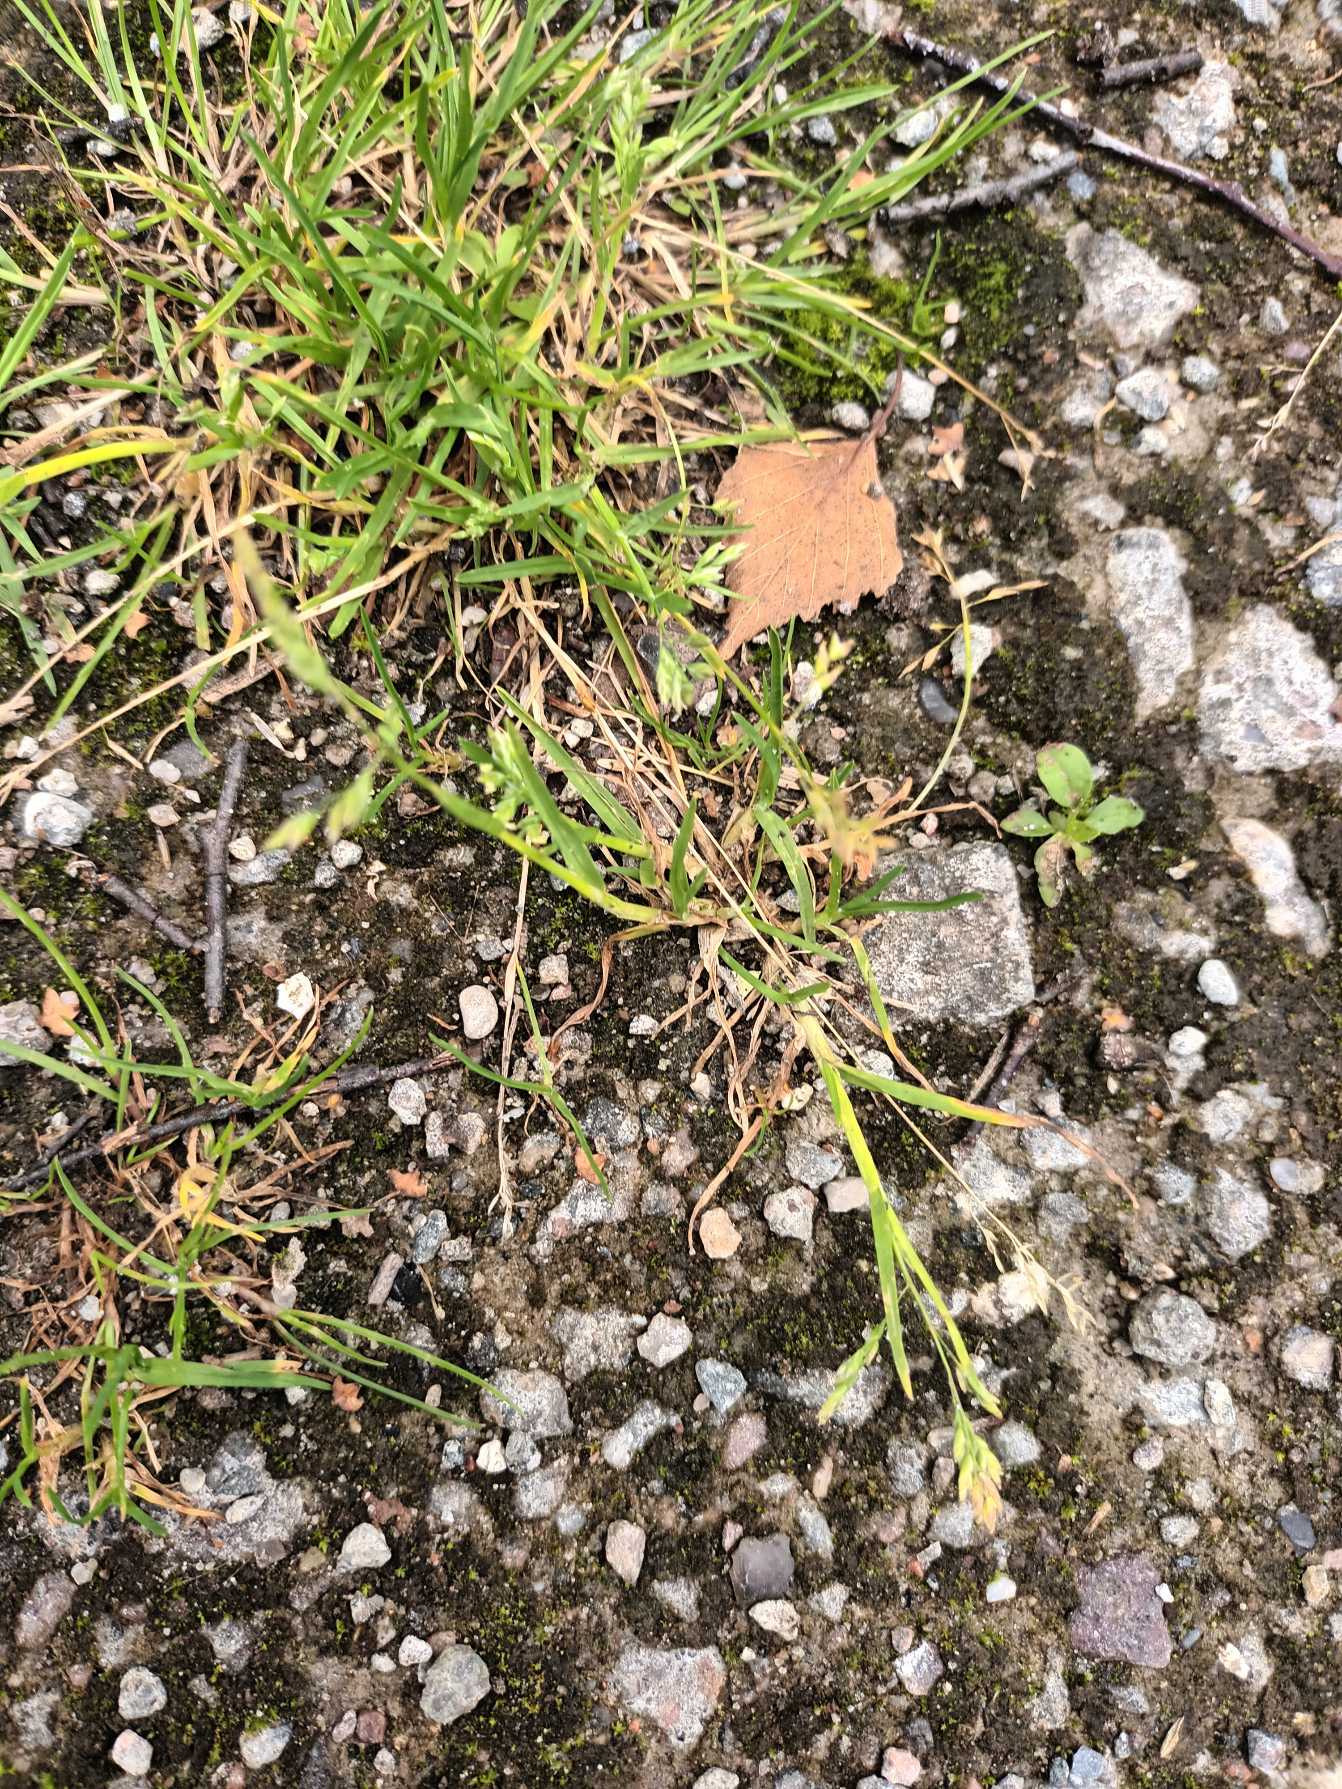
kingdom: Plantae
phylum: Tracheophyta
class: Liliopsida
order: Poales
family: Poaceae
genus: Poa
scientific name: Poa annua
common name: Enårig rapgræs
